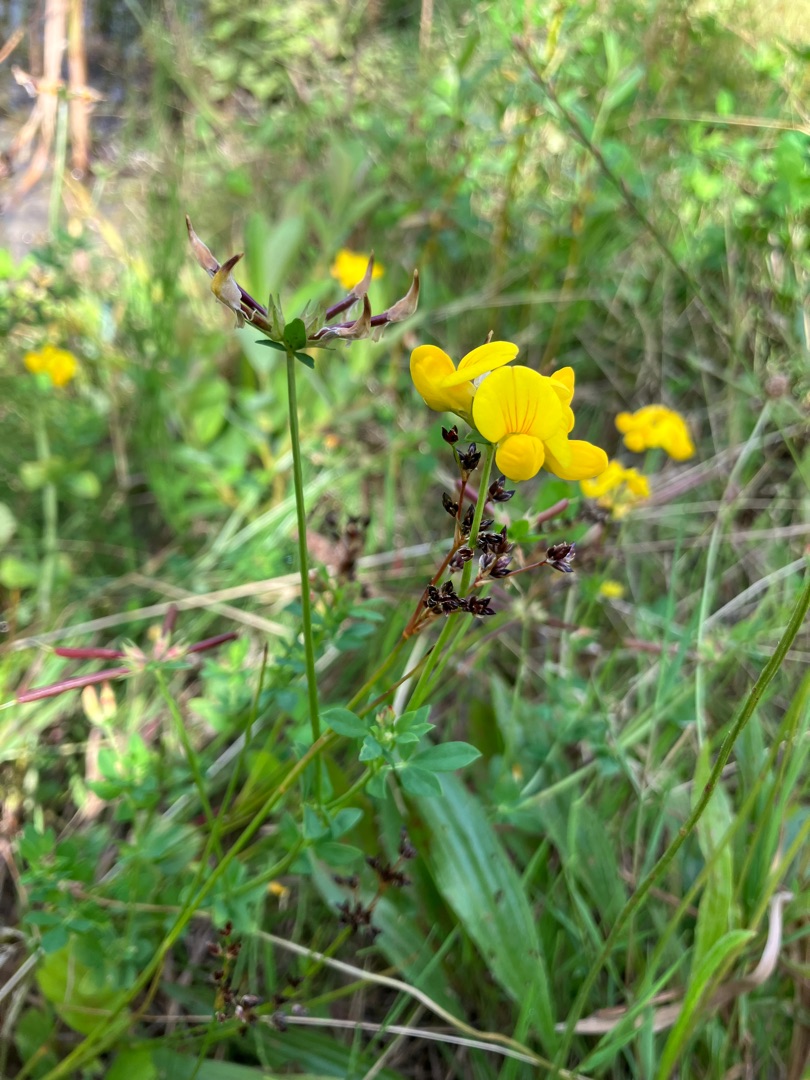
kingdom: Plantae
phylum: Tracheophyta
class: Magnoliopsida
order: Fabales
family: Fabaceae
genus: Lotus
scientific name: Lotus corniculatus
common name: Almindelig kællingetand
